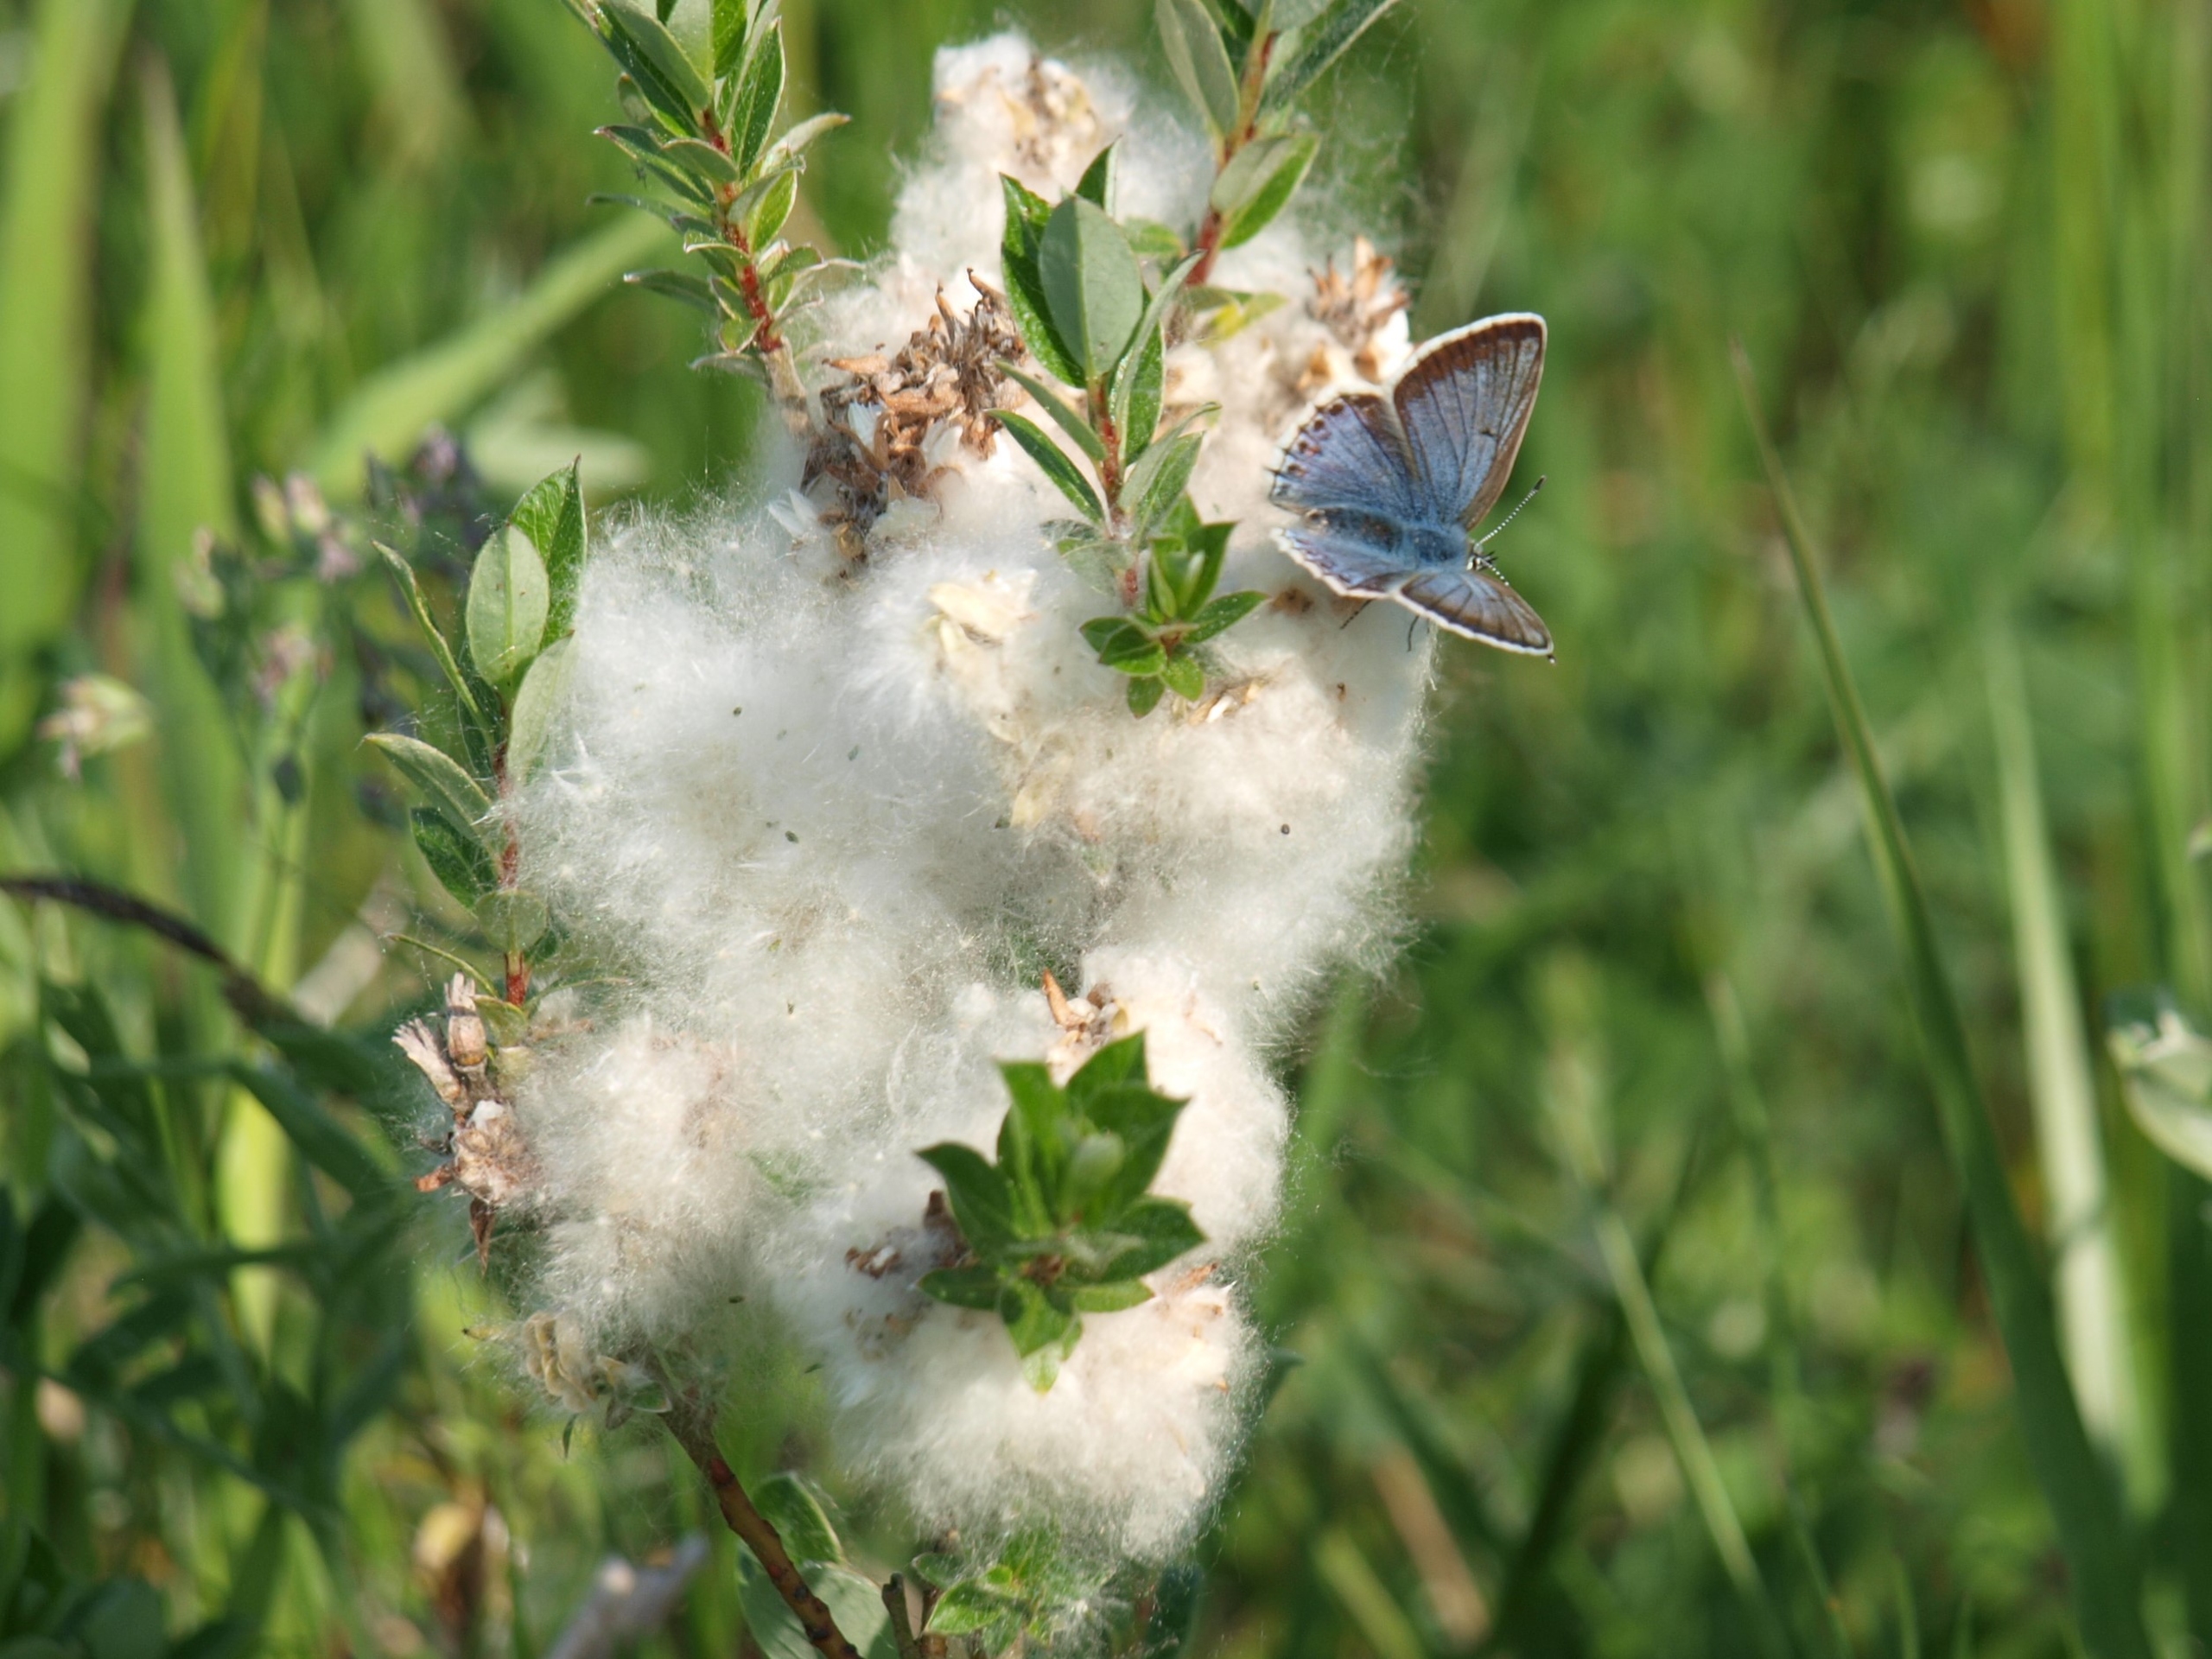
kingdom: Animalia
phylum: Arthropoda
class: Insecta
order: Lepidoptera
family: Lycaenidae
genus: Polyommatus
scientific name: Polyommatus icarus
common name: Almindelig blåfugl
